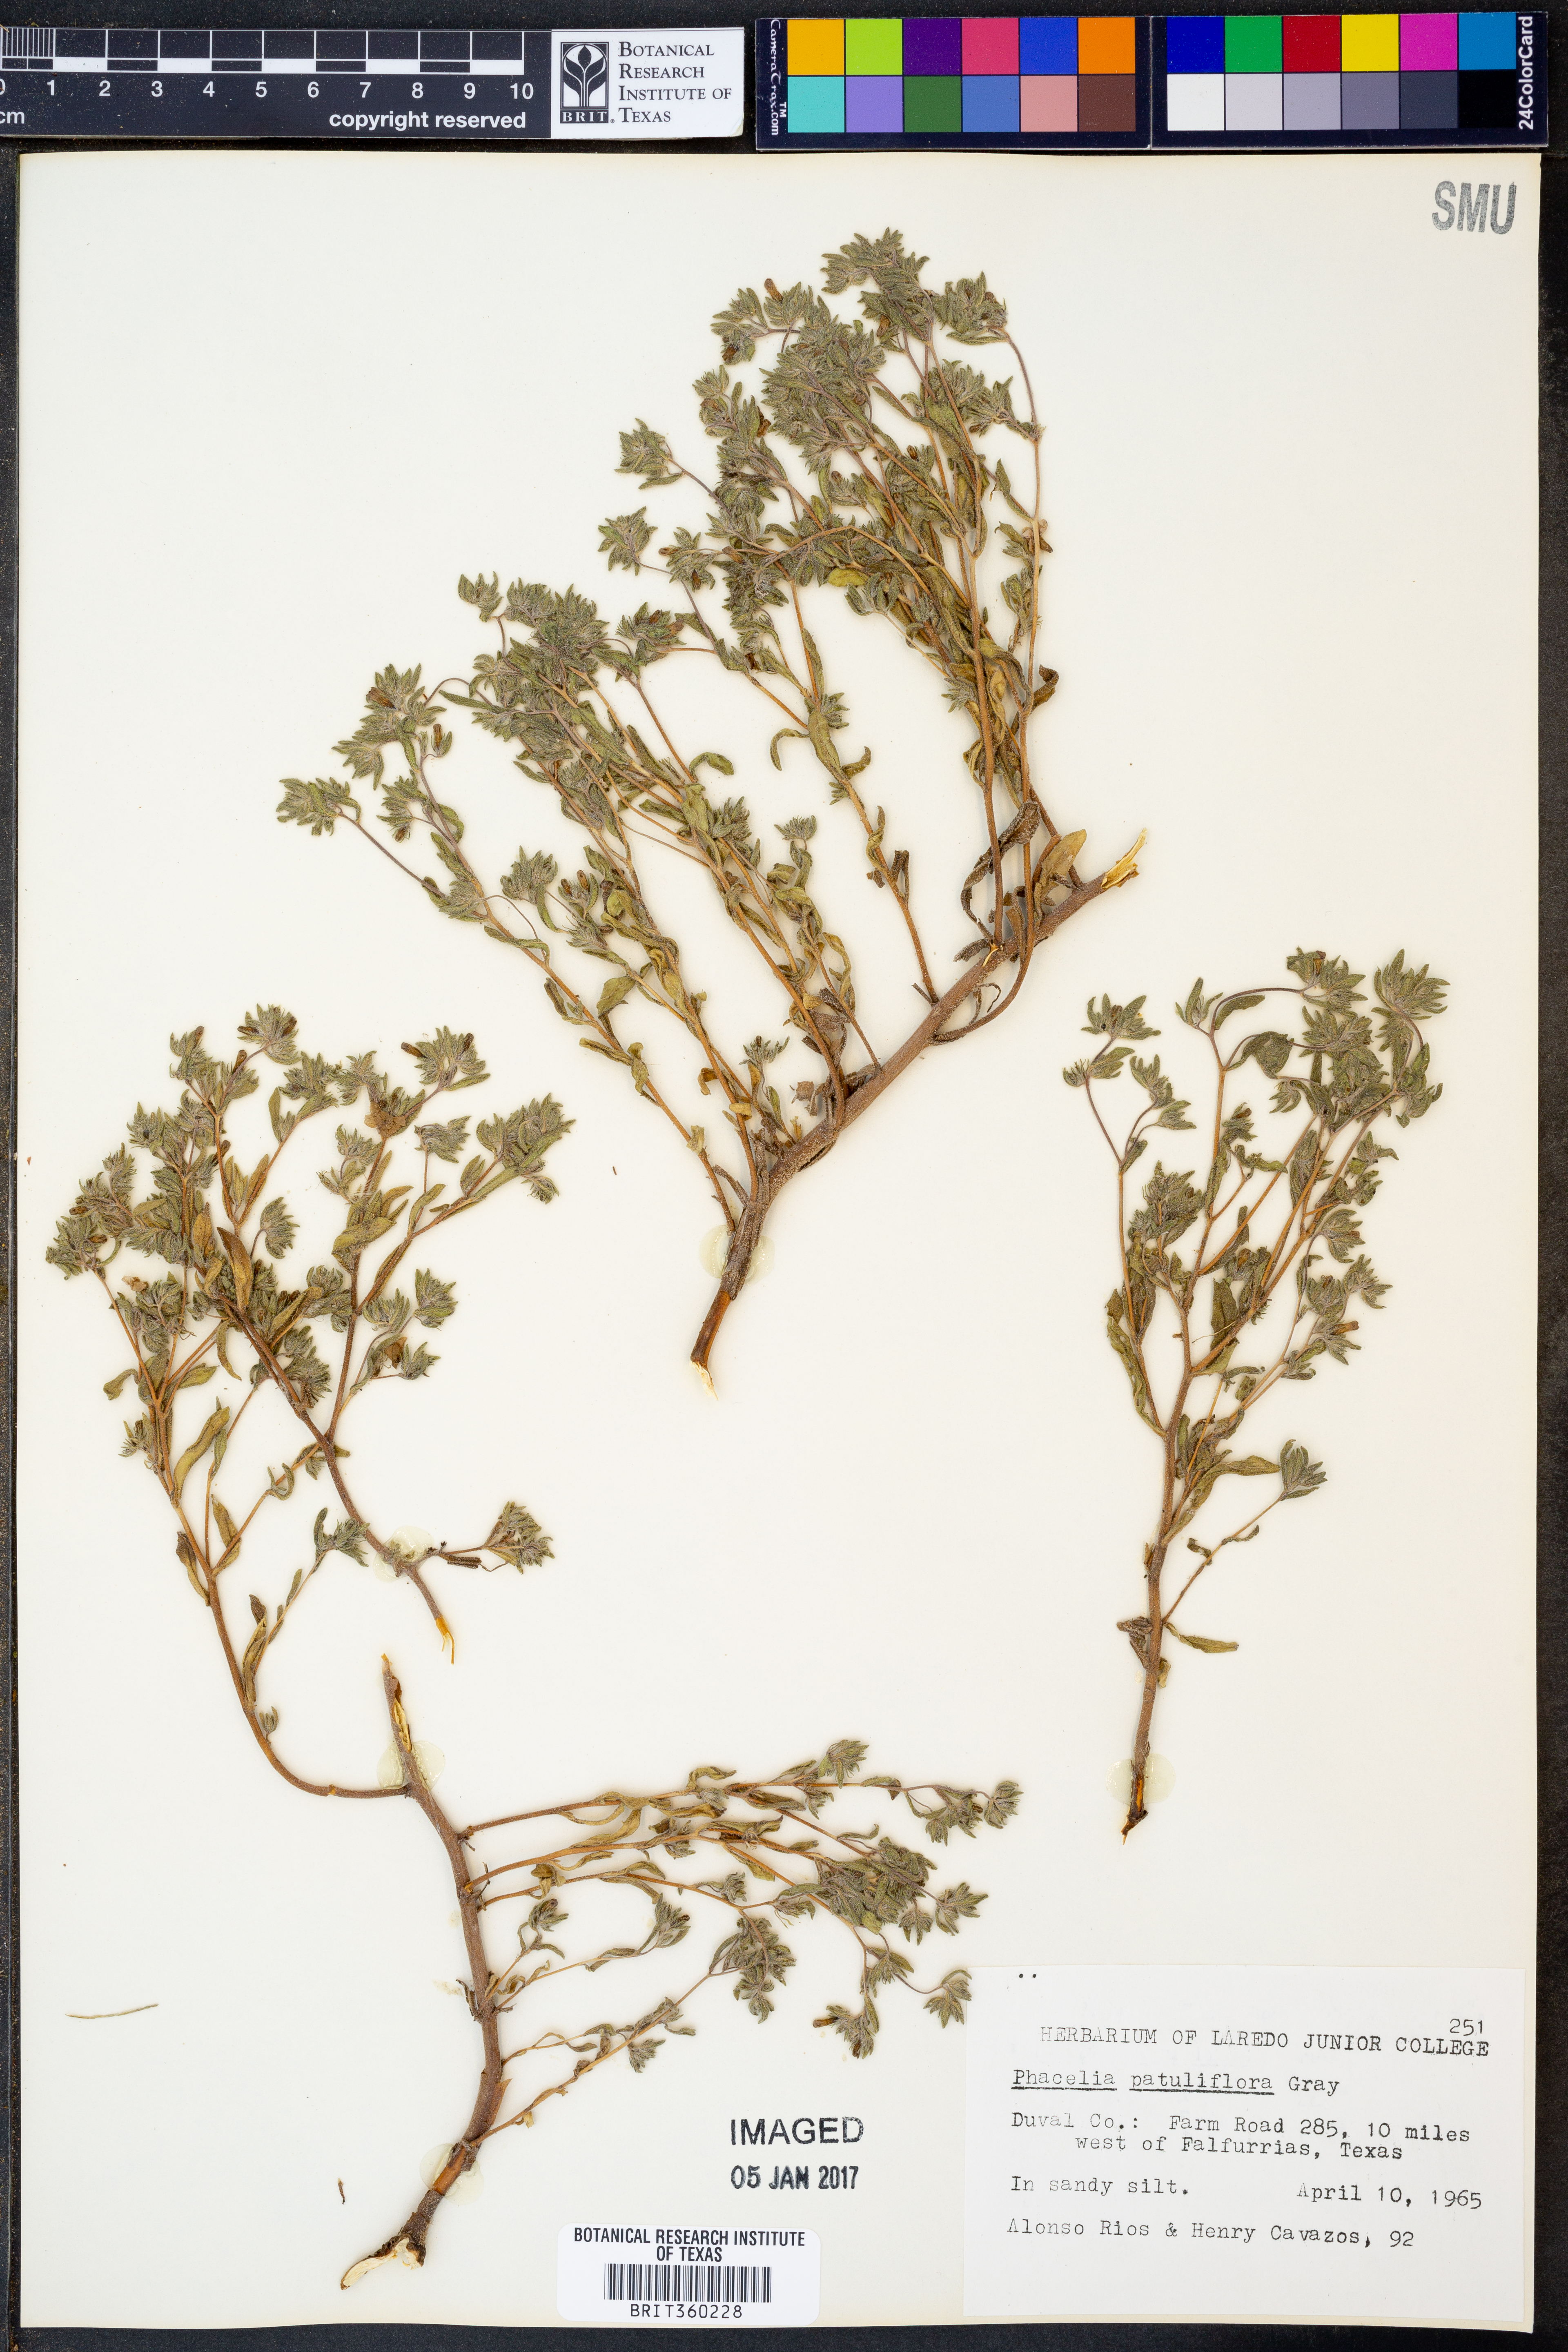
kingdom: Plantae
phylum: Tracheophyta
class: Magnoliopsida
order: Boraginales
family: Hydrophyllaceae
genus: Phacelia
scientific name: Phacelia patuliflora
